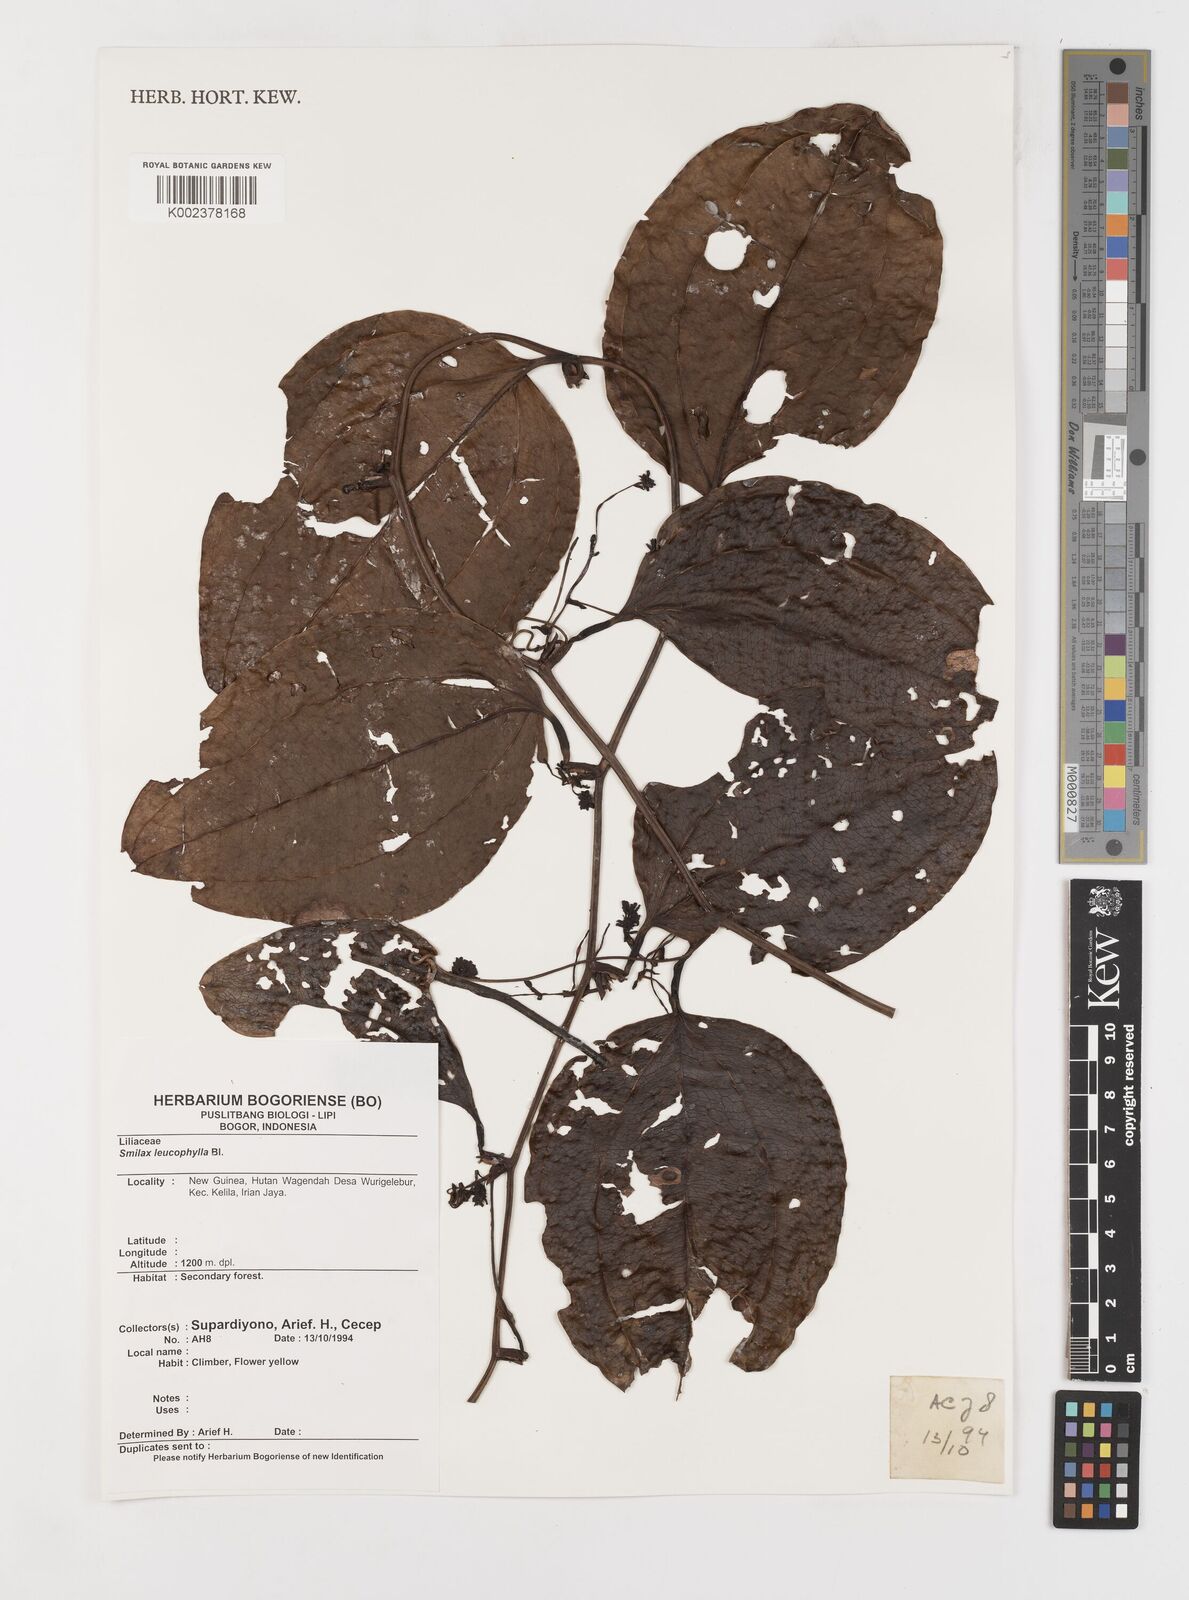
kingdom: Plantae
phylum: Tracheophyta
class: Liliopsida
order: Liliales
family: Smilacaceae
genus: Smilax
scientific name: Smilax leucophylla
